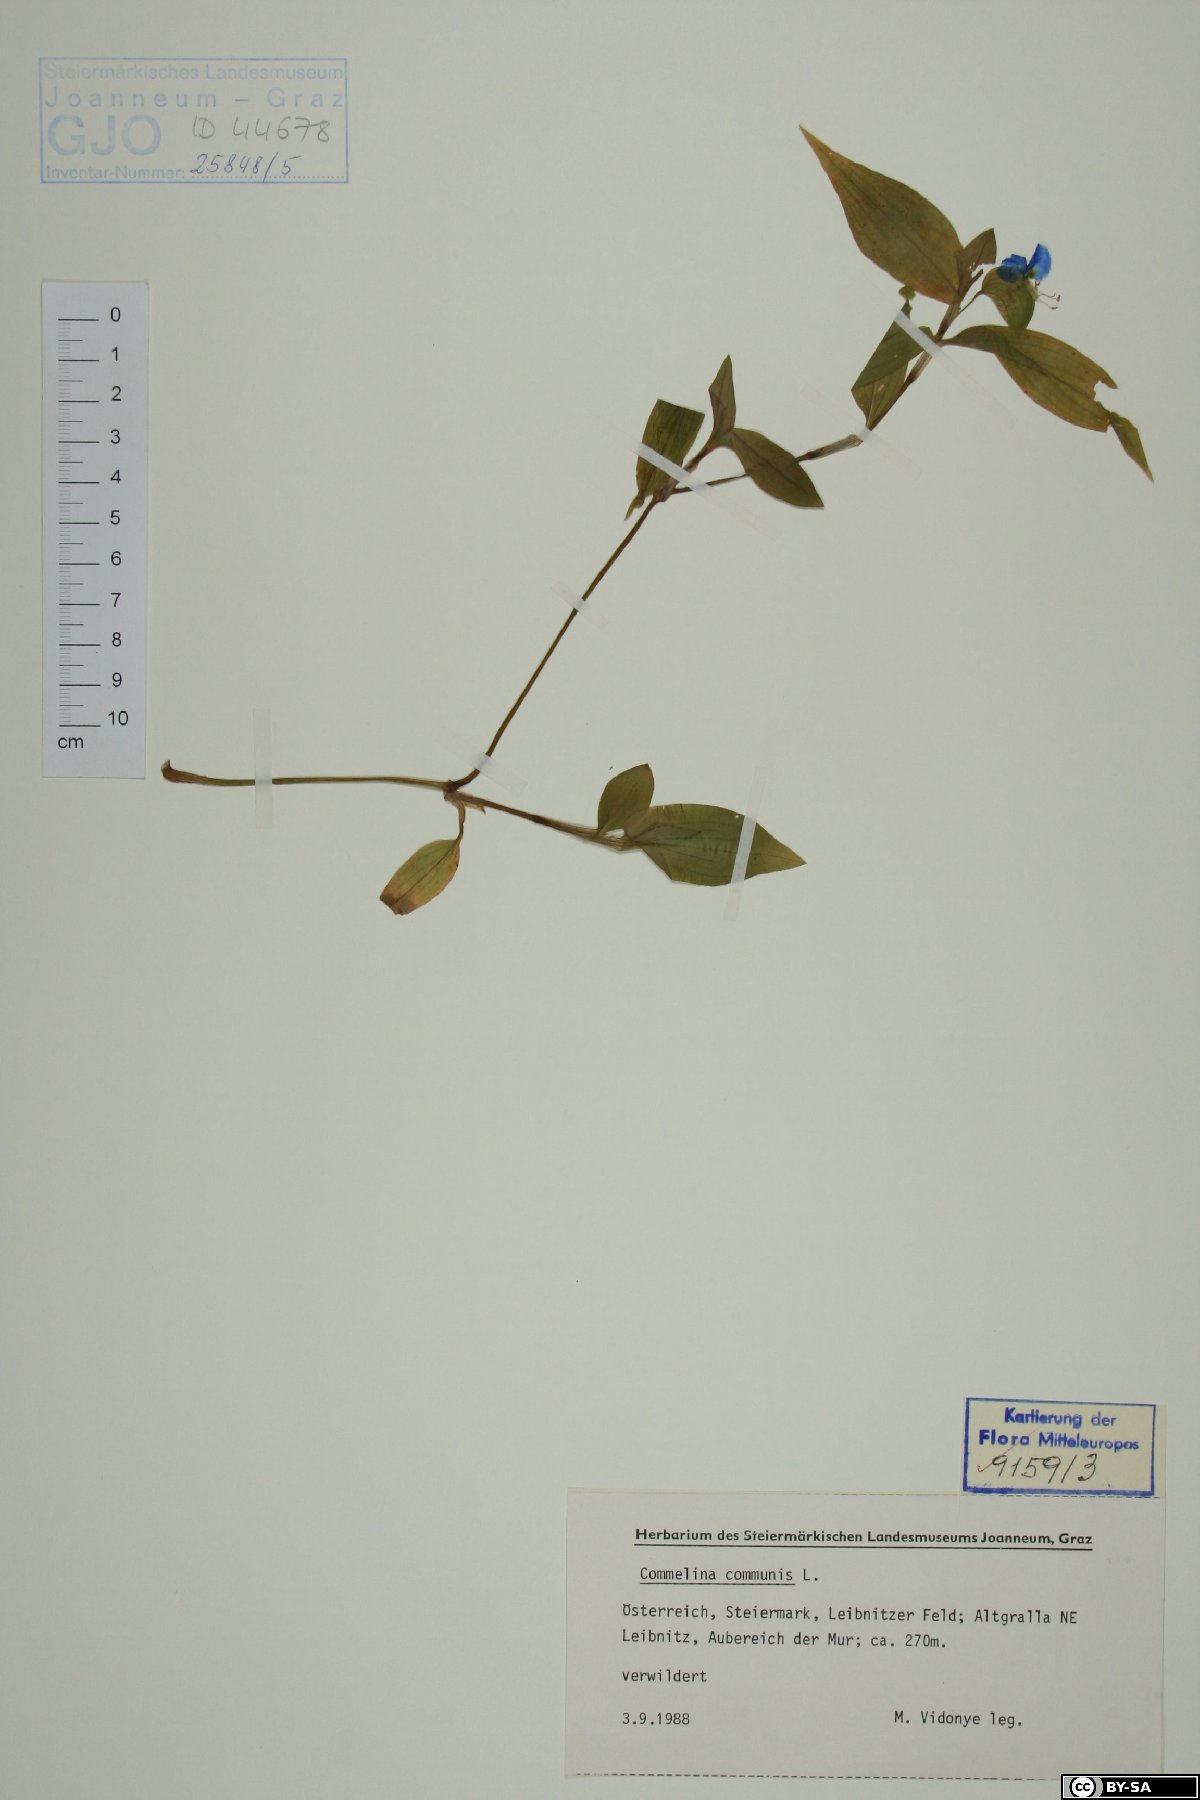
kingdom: Plantae
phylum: Tracheophyta
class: Liliopsida
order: Commelinales
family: Commelinaceae
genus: Commelina
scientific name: Commelina communis
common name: Asiatic dayflower
